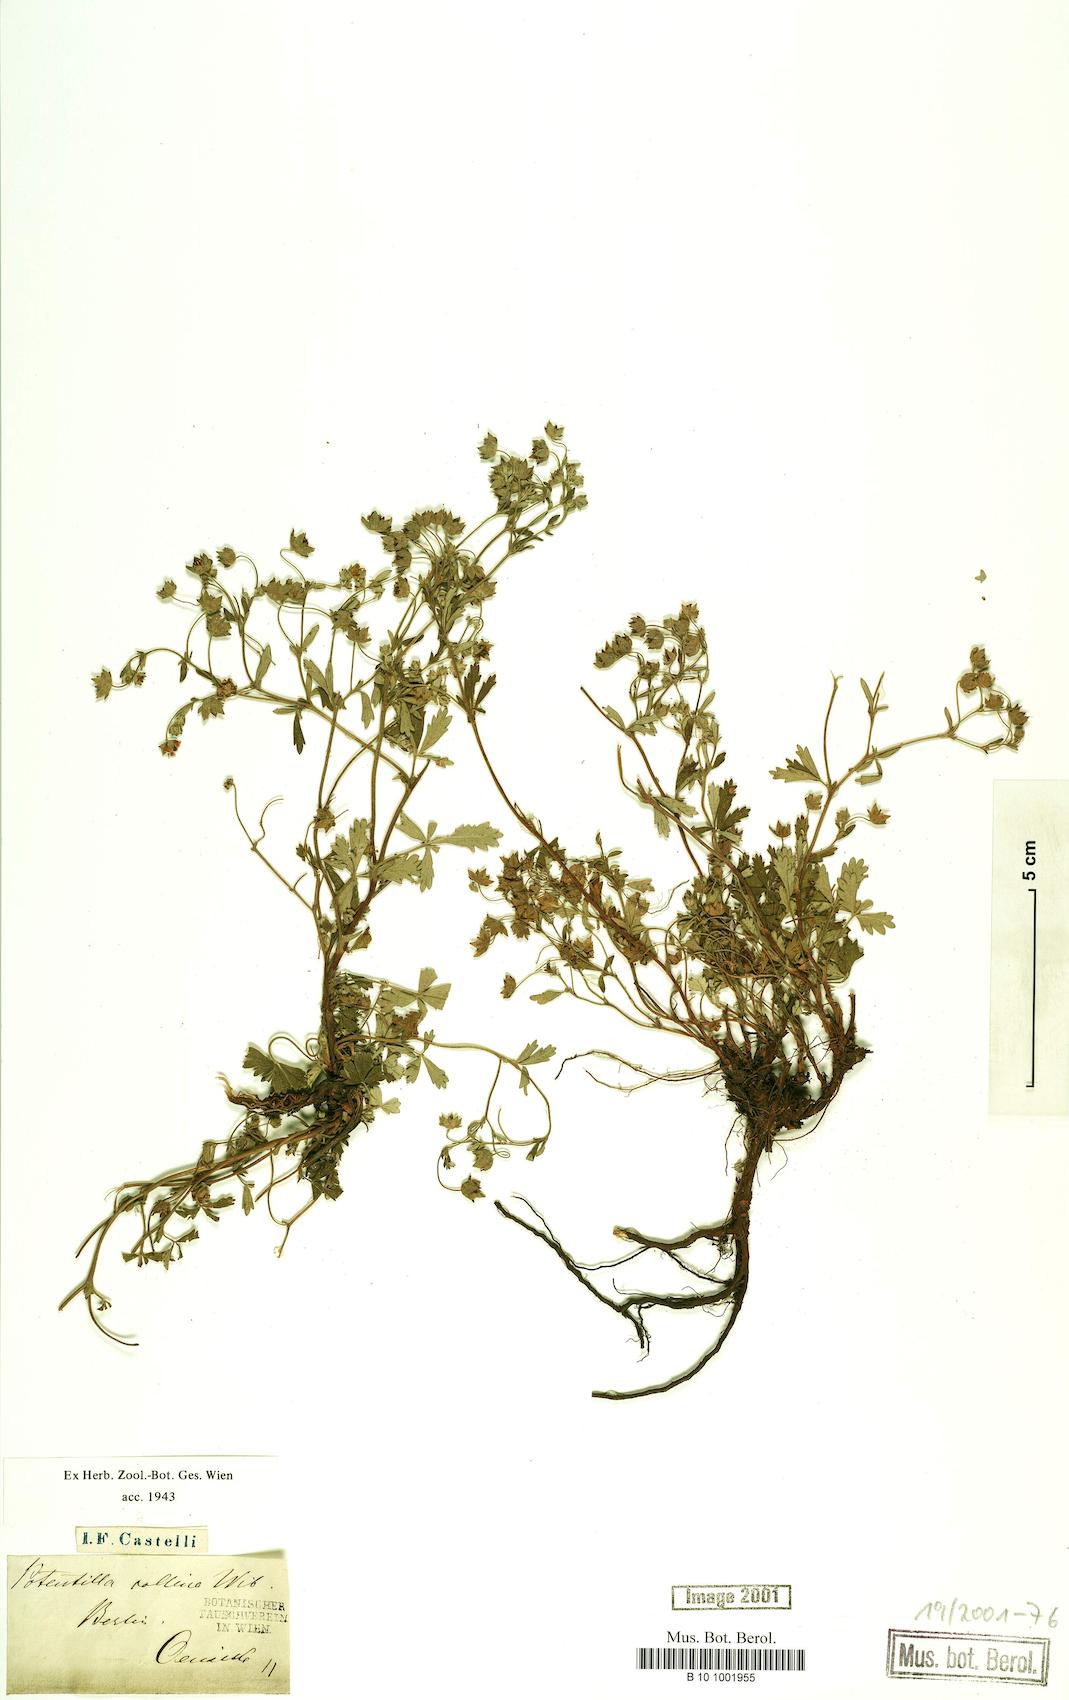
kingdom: Plantae
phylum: Tracheophyta
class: Magnoliopsida
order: Rosales
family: Rosaceae
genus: Potentilla
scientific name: Potentilla collina
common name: Palmleaf cinquefoil
